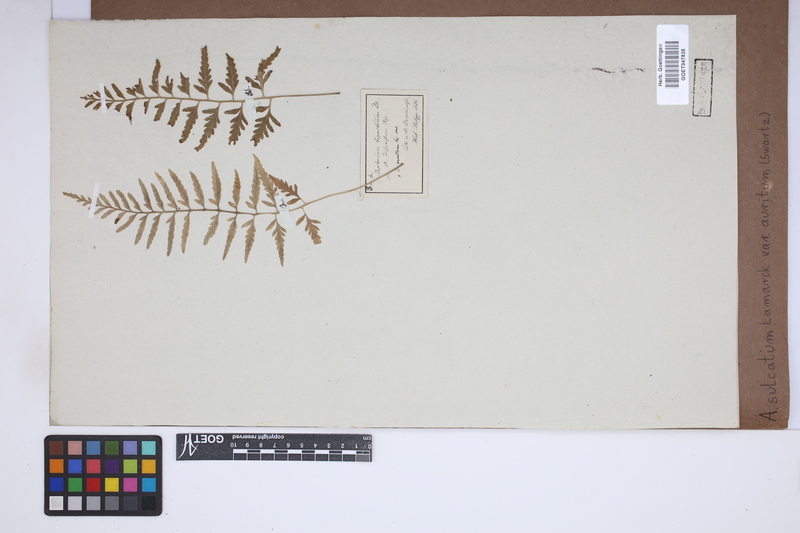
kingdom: Plantae
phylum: Tracheophyta
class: Polypodiopsida
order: Polypodiales
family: Aspleniaceae
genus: Asplenium
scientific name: Asplenium auritum
